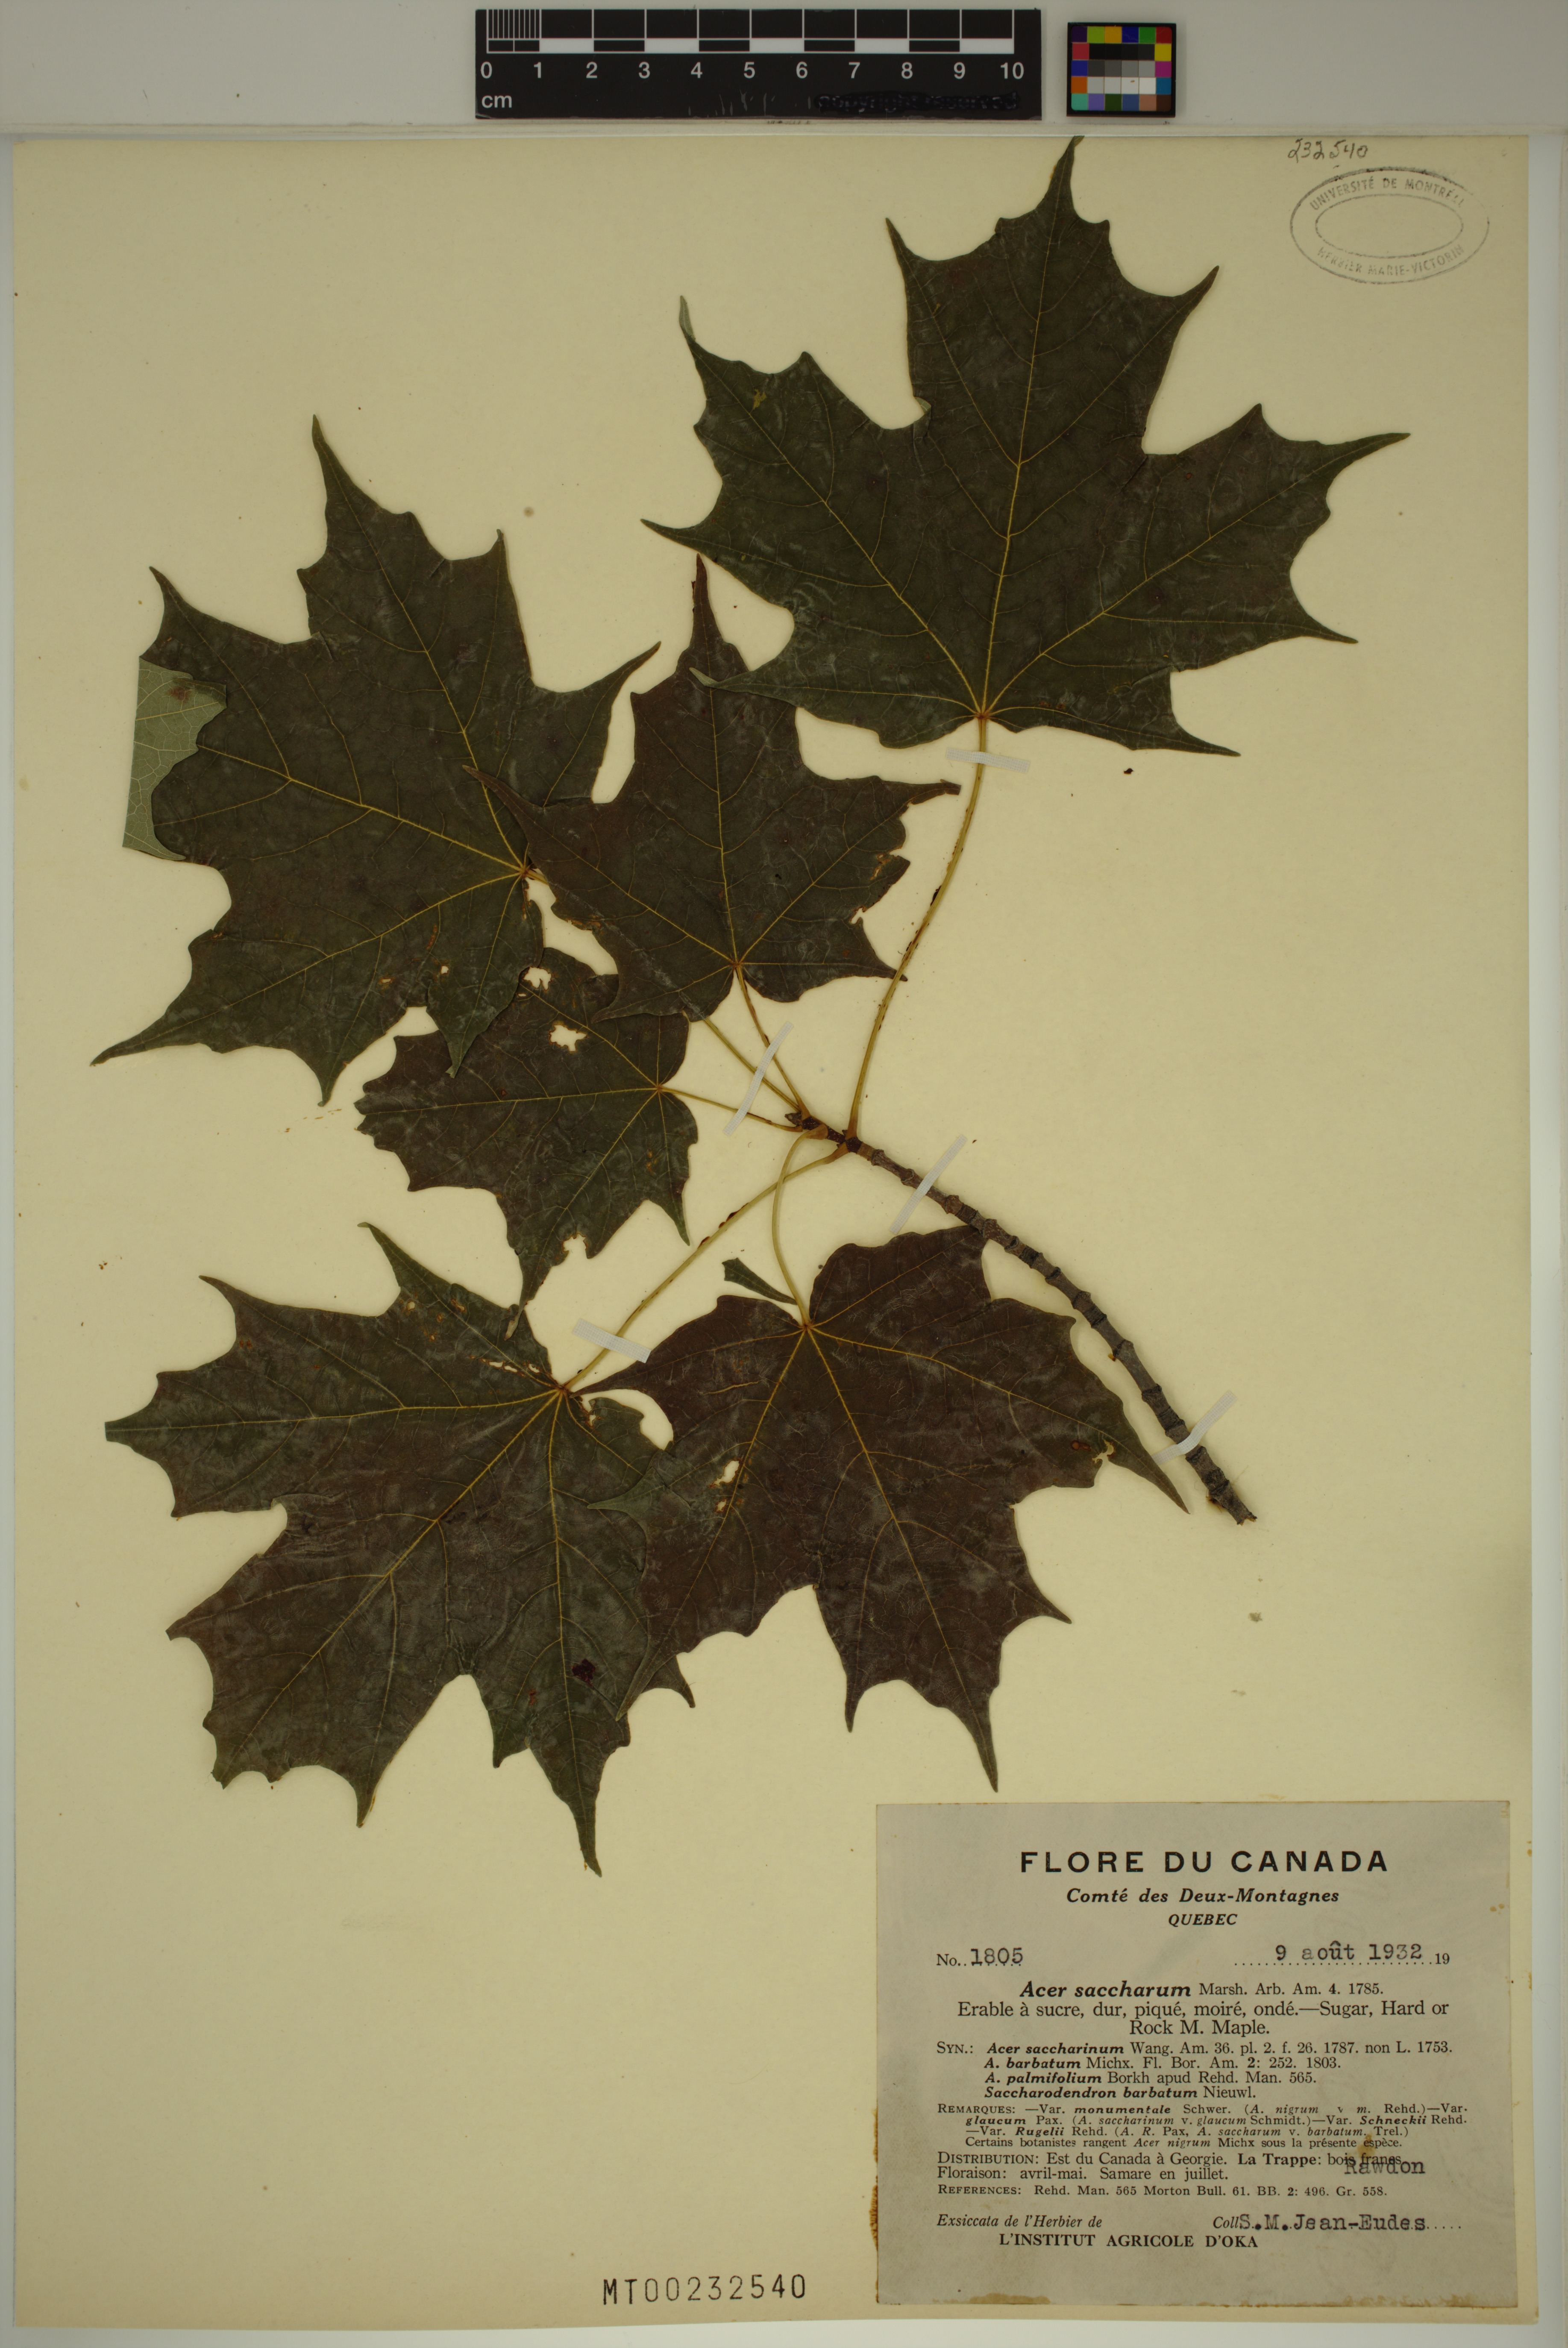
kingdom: Plantae
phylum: Tracheophyta
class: Magnoliopsida
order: Sapindales
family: Sapindaceae
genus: Acer
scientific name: Acer saccharum
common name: Sugar maple
